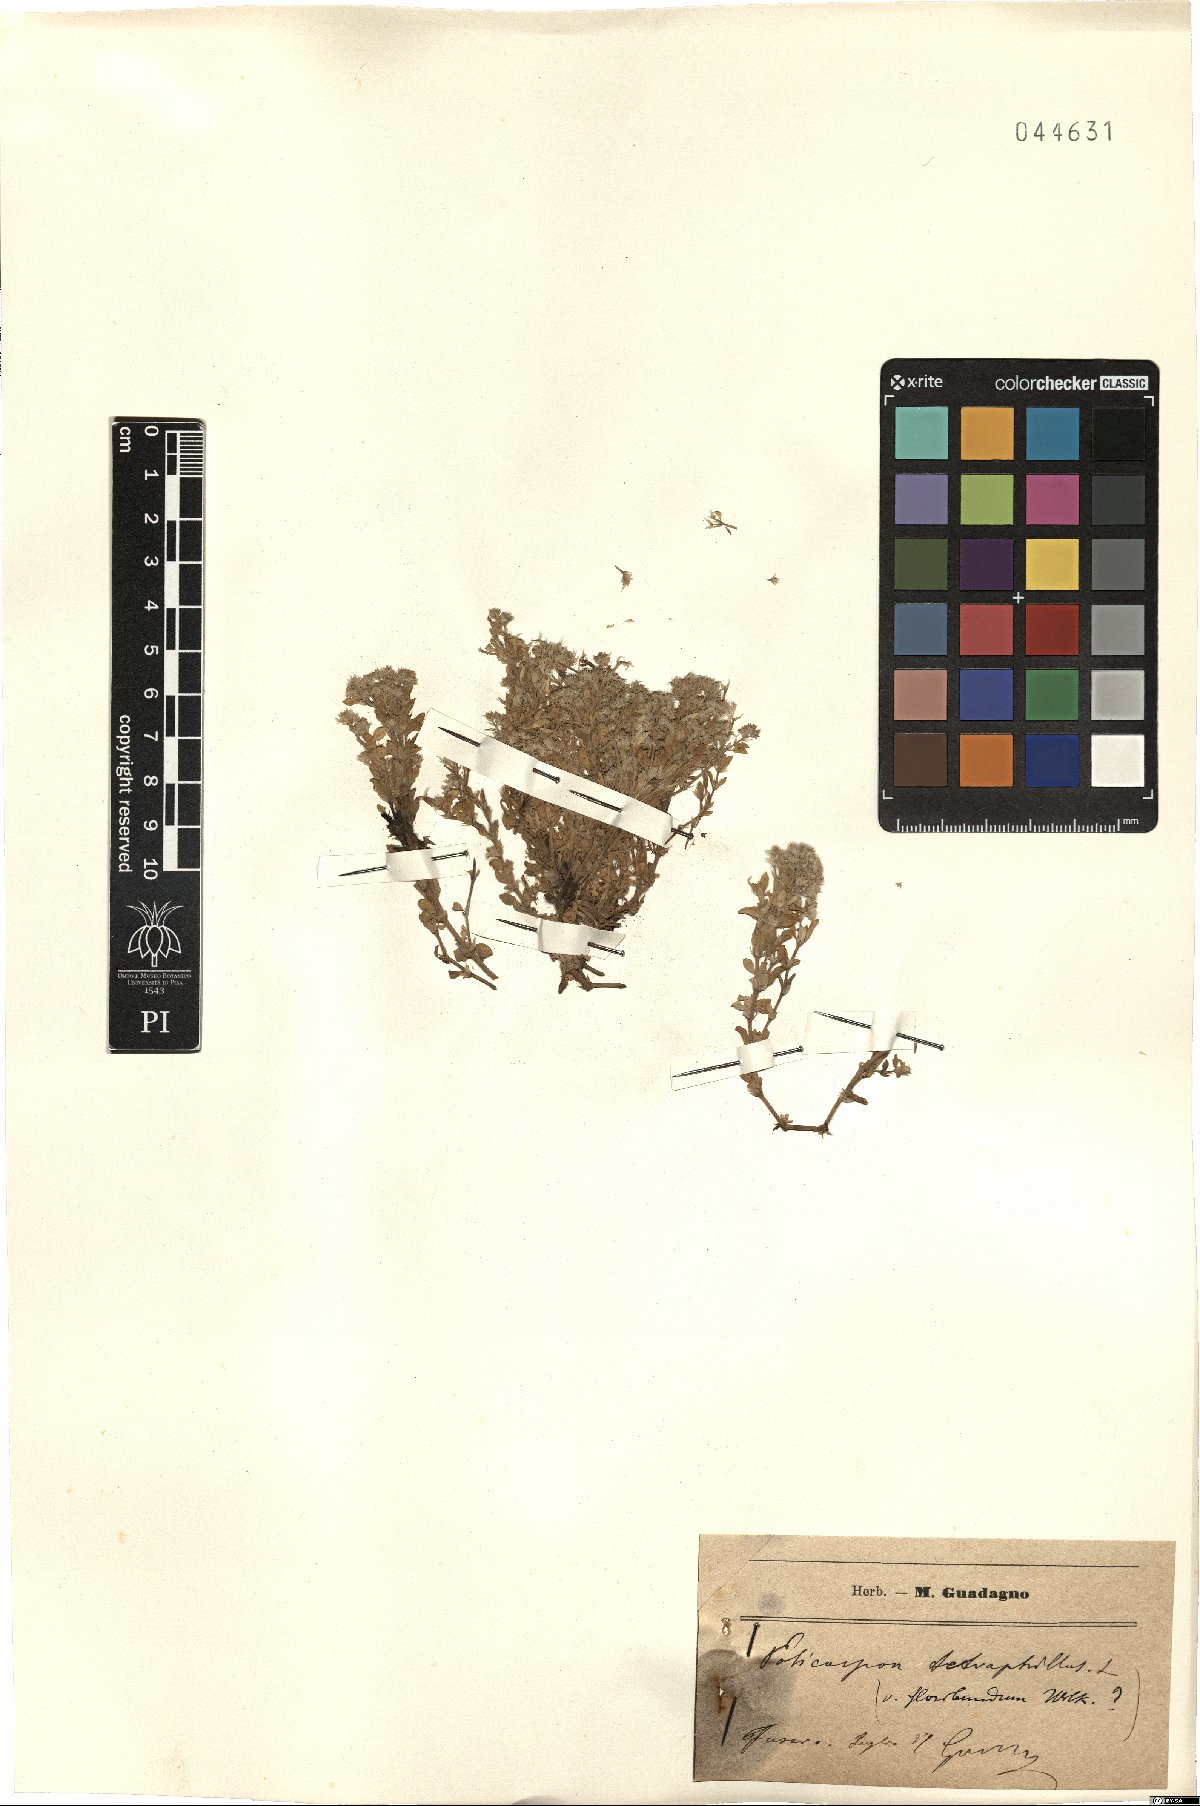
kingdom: Plantae
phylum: Tracheophyta
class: Magnoliopsida
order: Caryophyllales
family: Caryophyllaceae
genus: Polycarpon
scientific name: Polycarpon tetraphyllum
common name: Four-leaved all-seed
